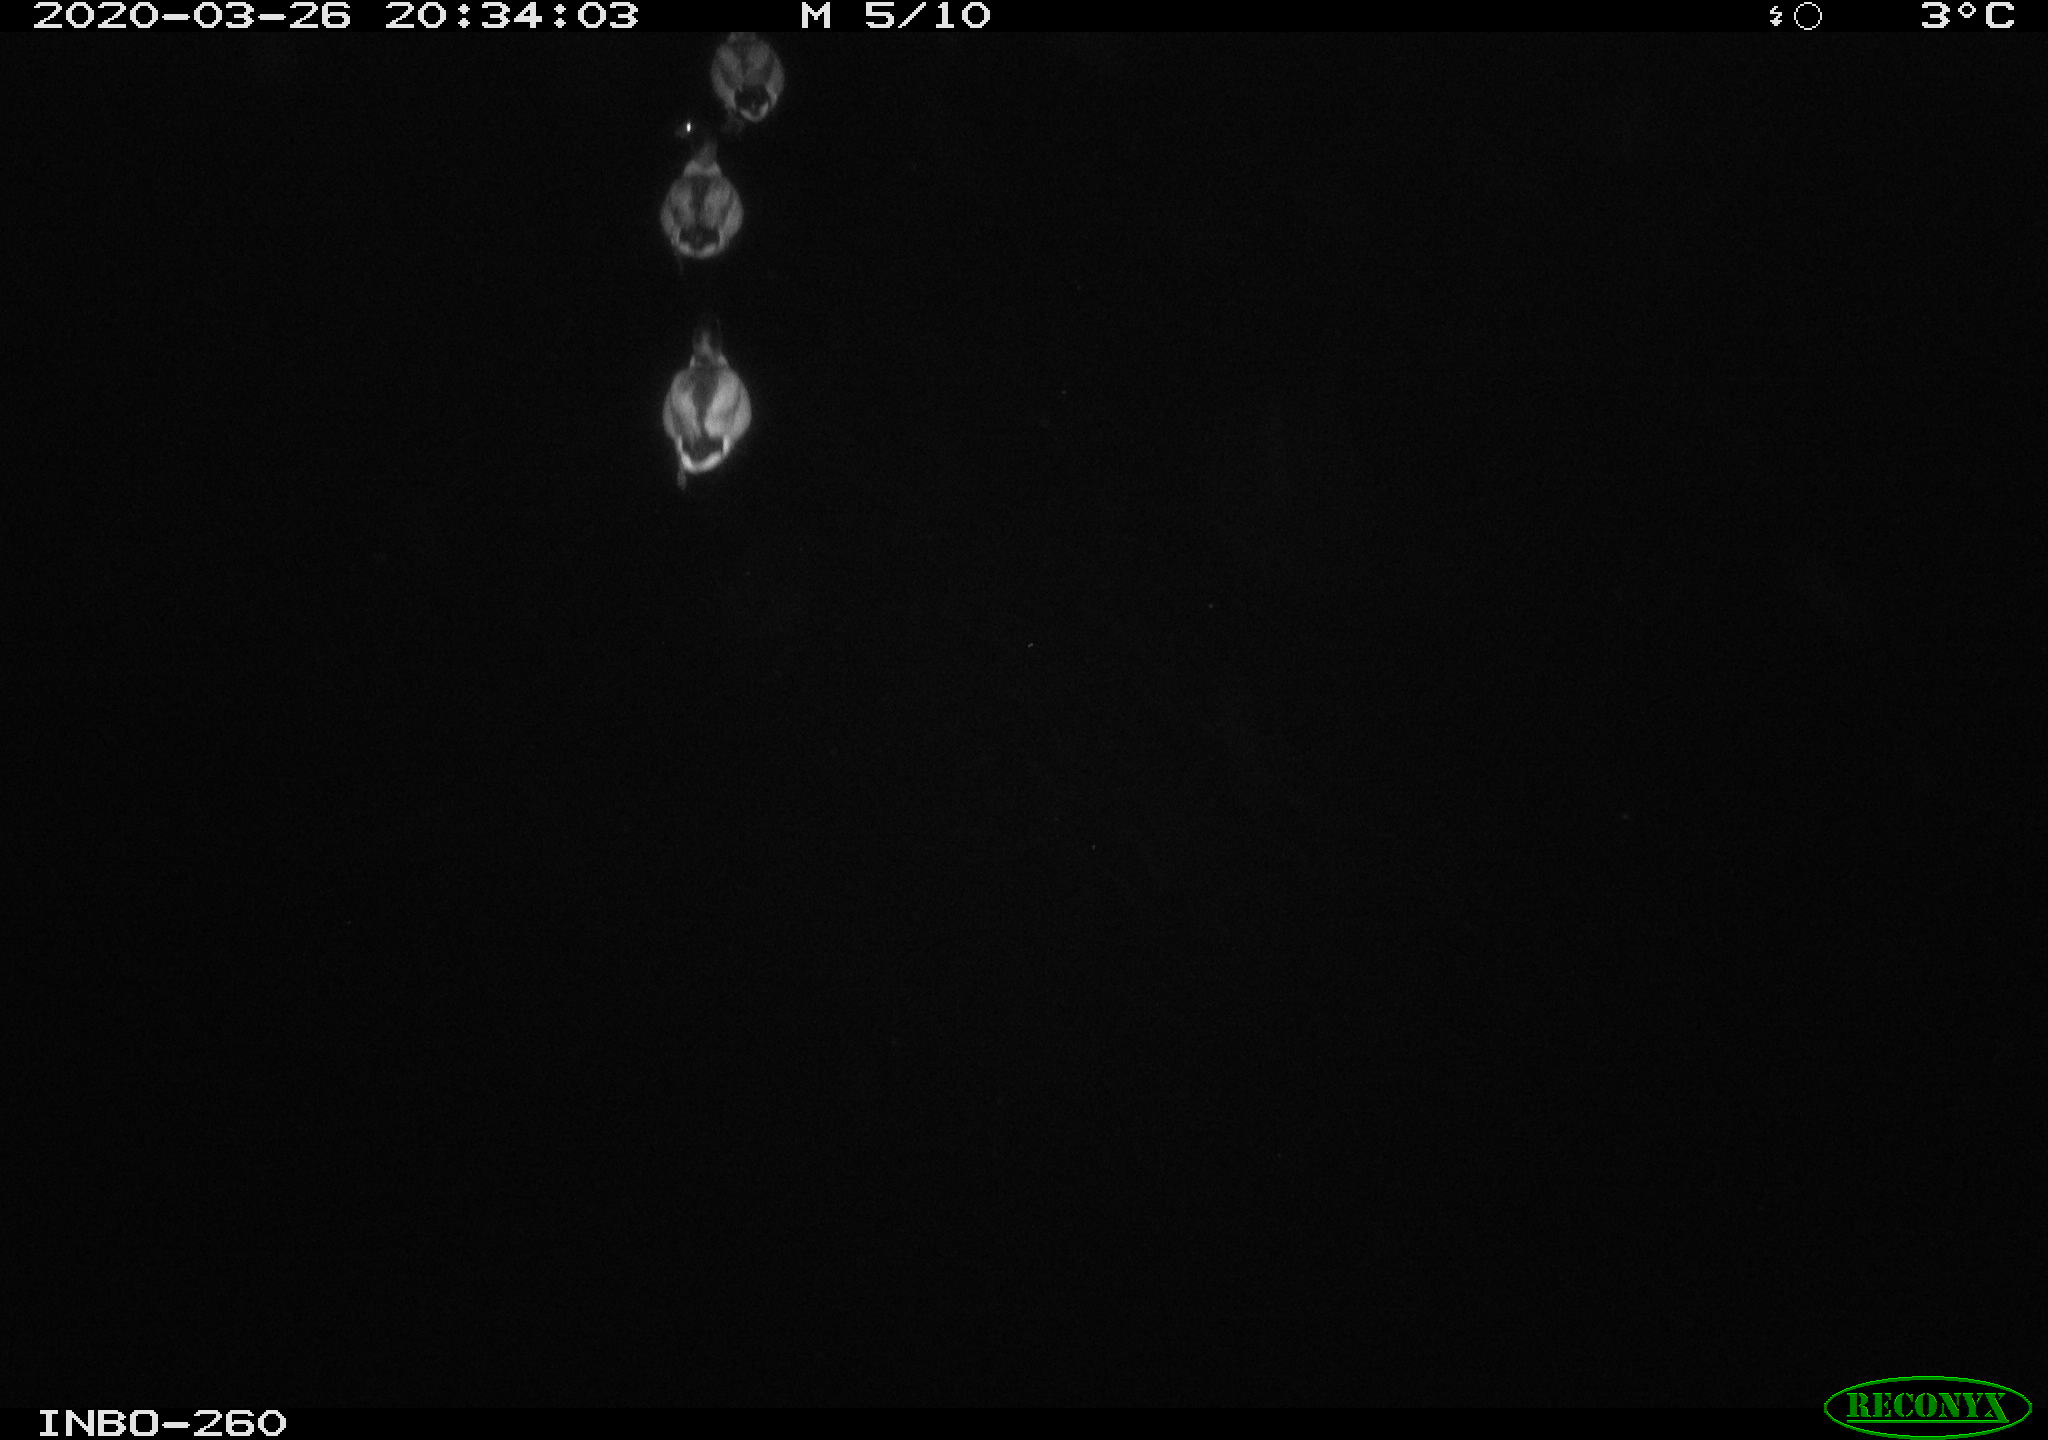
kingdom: Animalia
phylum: Chordata
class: Aves
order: Anseriformes
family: Anatidae
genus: Anas
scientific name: Anas platyrhynchos
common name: Mallard
